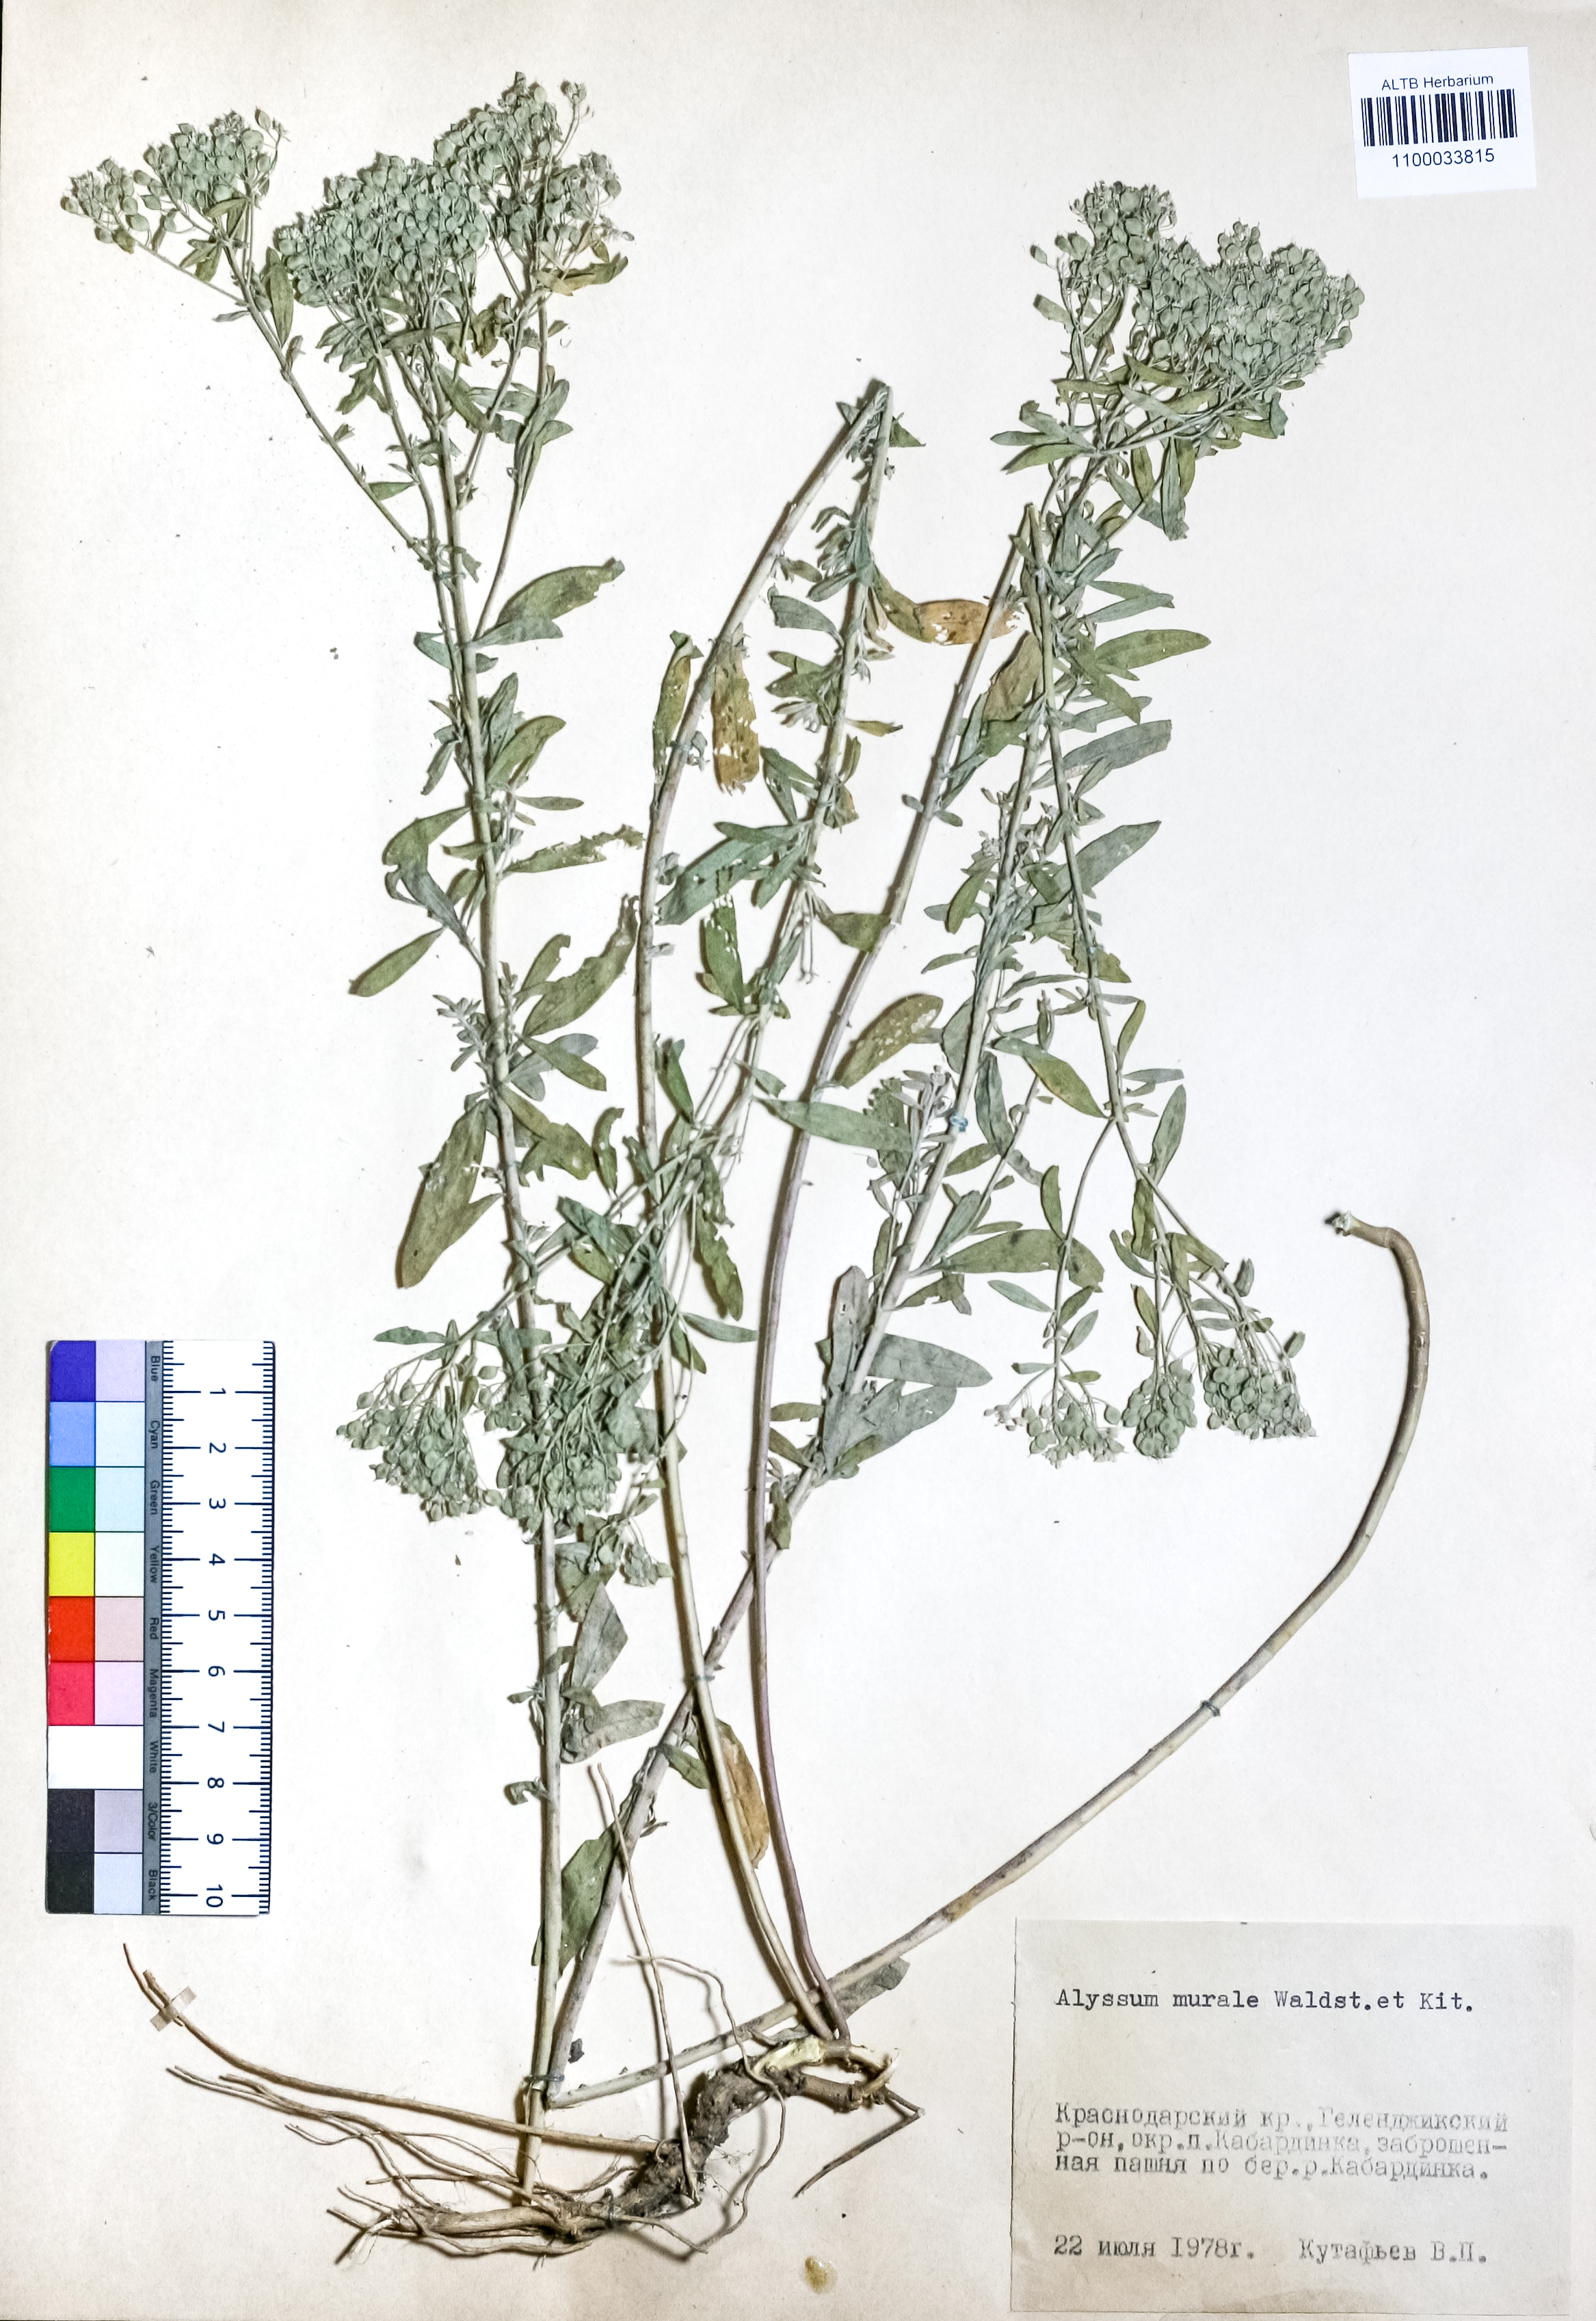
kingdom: Plantae
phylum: Tracheophyta
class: Magnoliopsida
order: Brassicales
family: Brassicaceae
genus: Odontarrhena
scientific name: Odontarrhena muralis
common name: Rock alyssum
